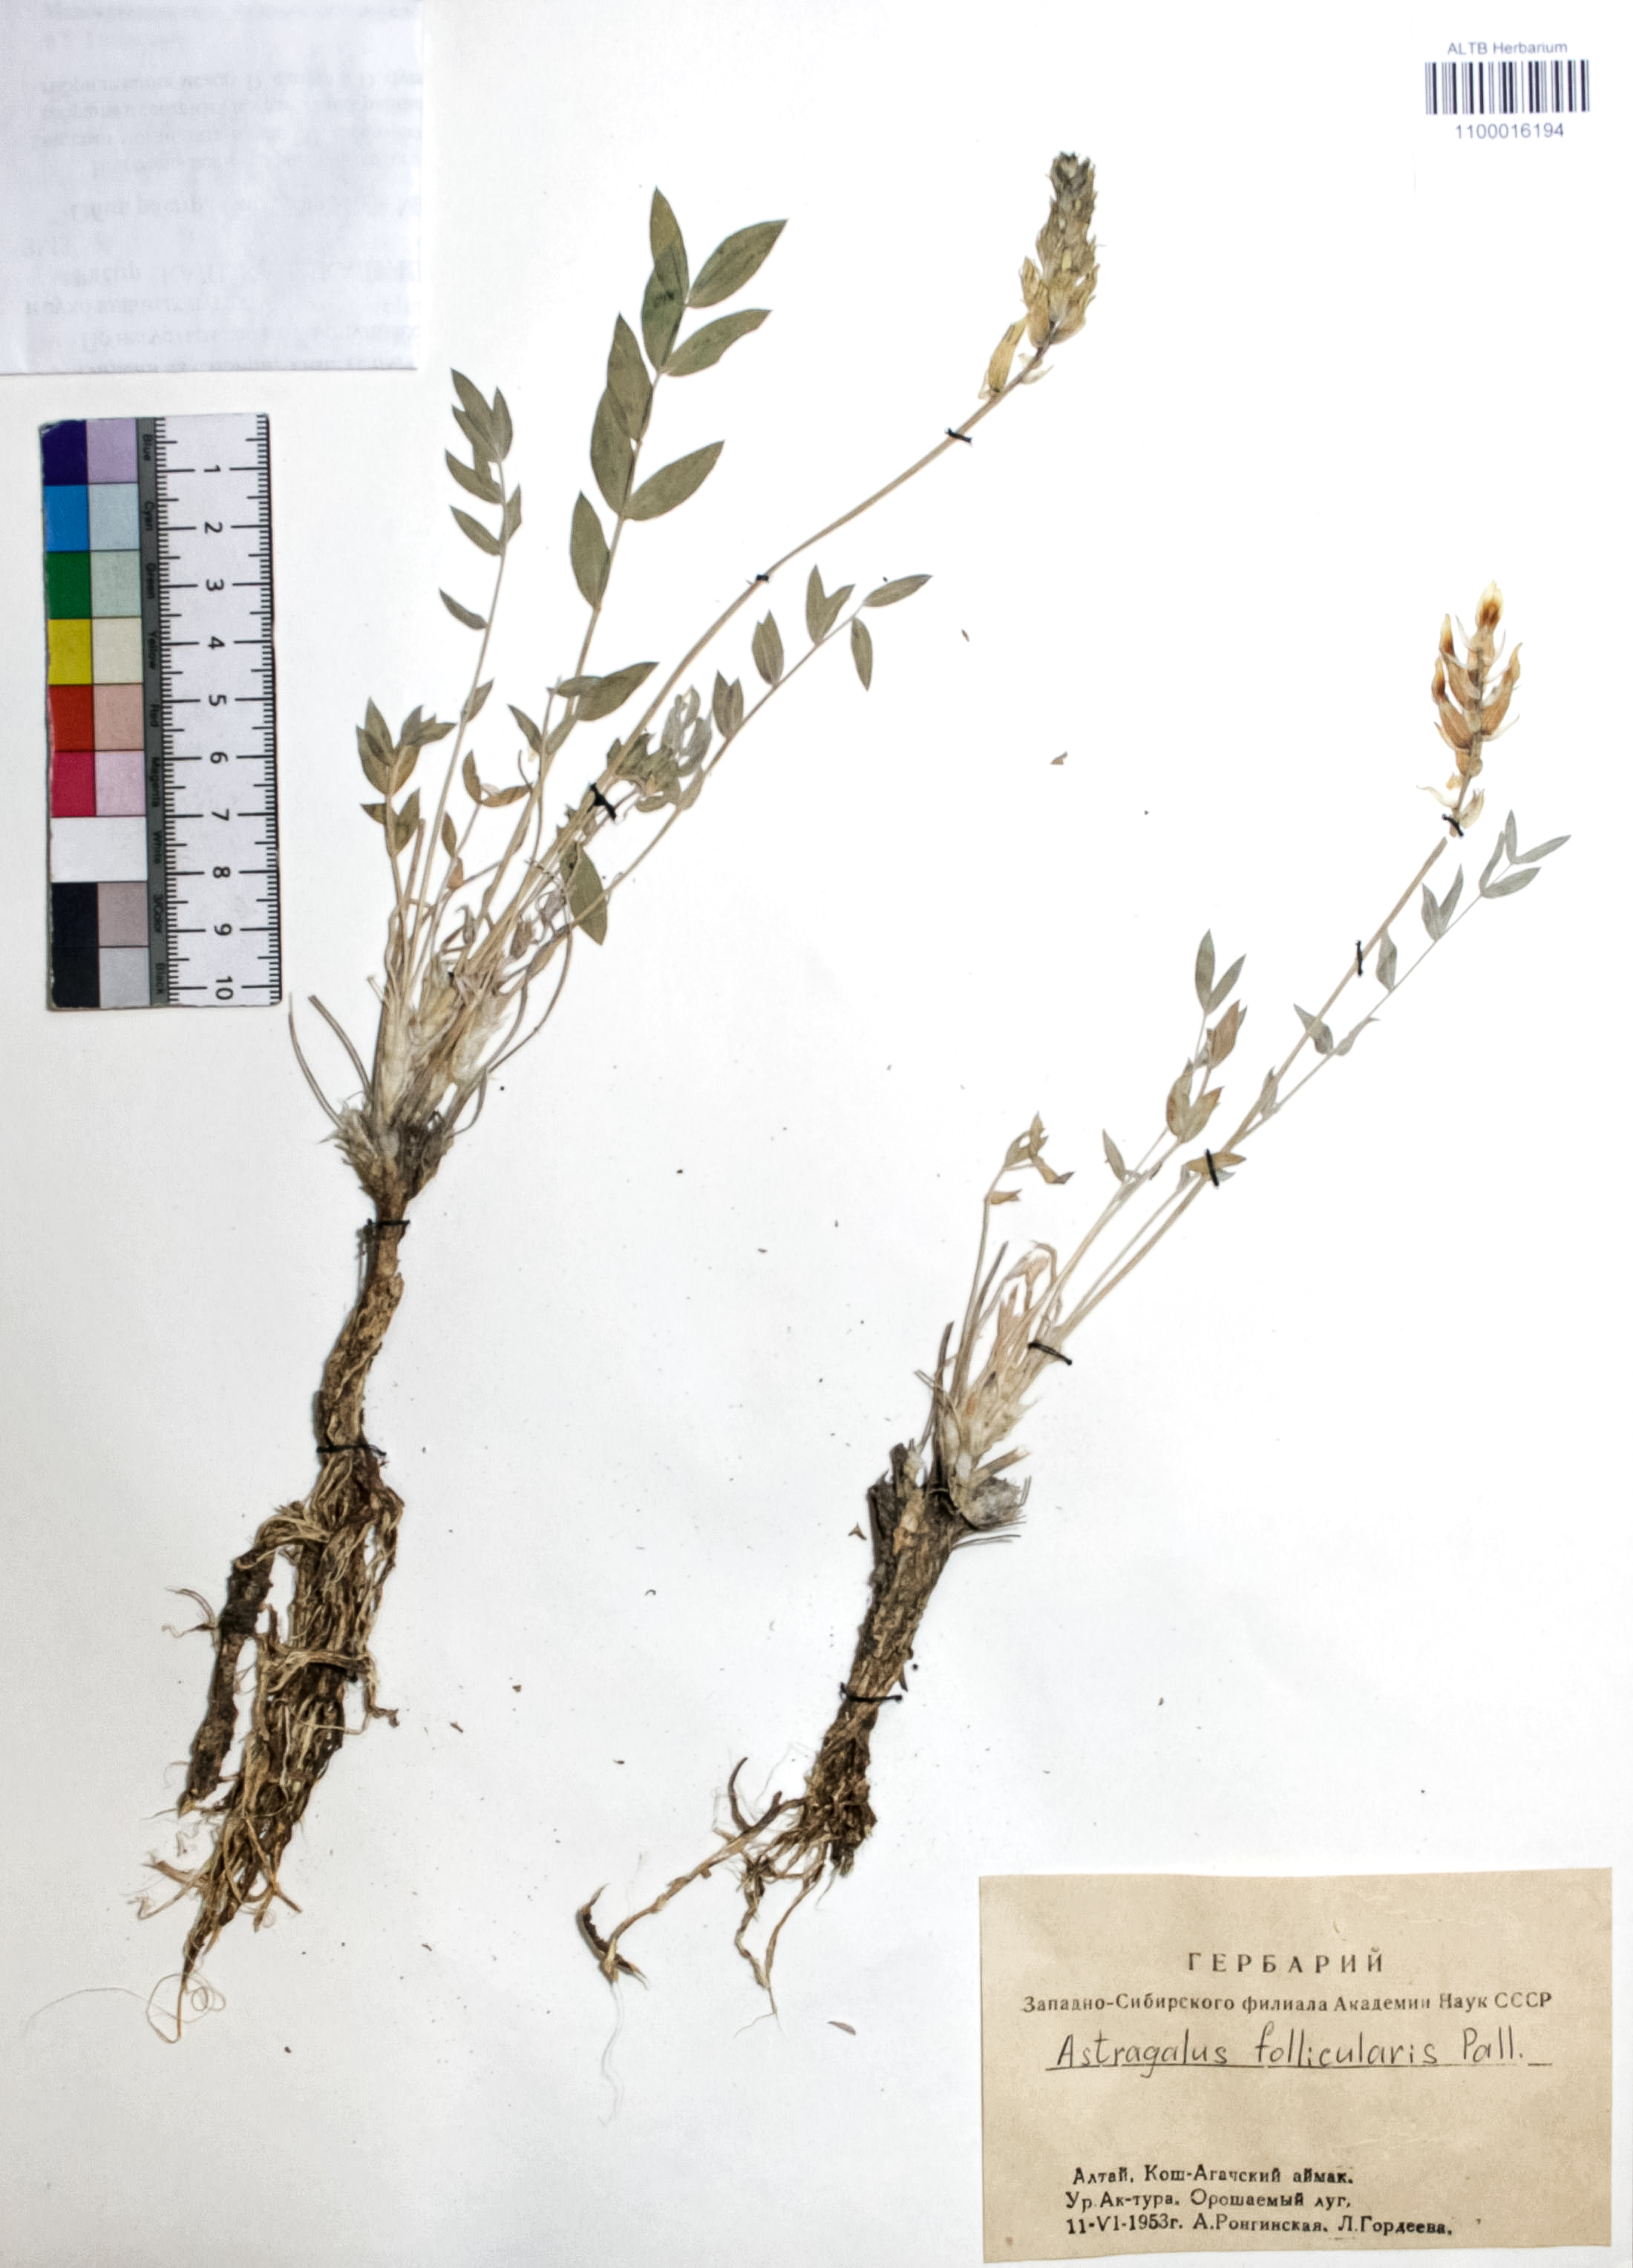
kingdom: Plantae
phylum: Tracheophyta
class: Magnoliopsida
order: Fabales
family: Fabaceae
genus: Astragalus
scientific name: Astragalus follicularis
